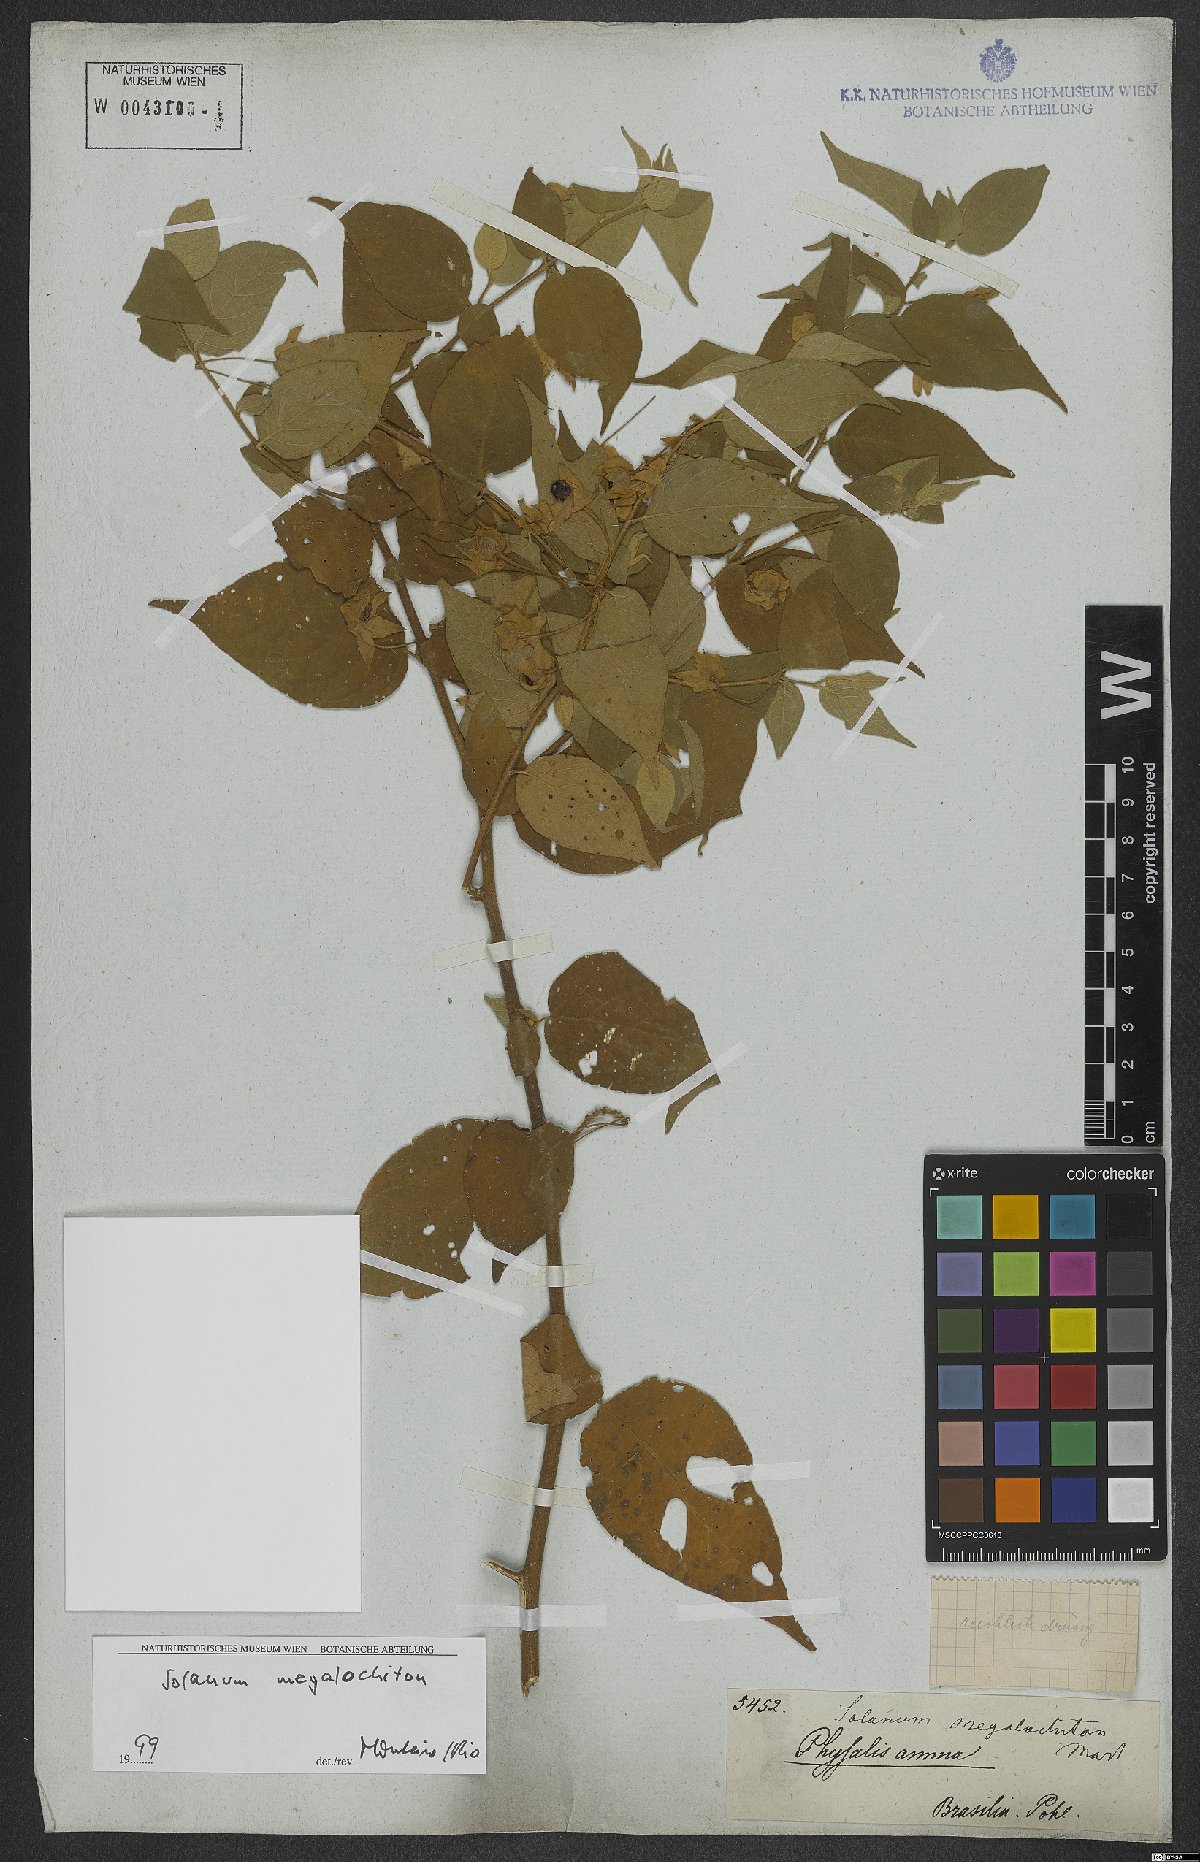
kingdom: Plantae
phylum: Tracheophyta
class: Magnoliopsida
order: Solanales
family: Solanaceae
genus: Solanum
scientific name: Solanum megalochiton
